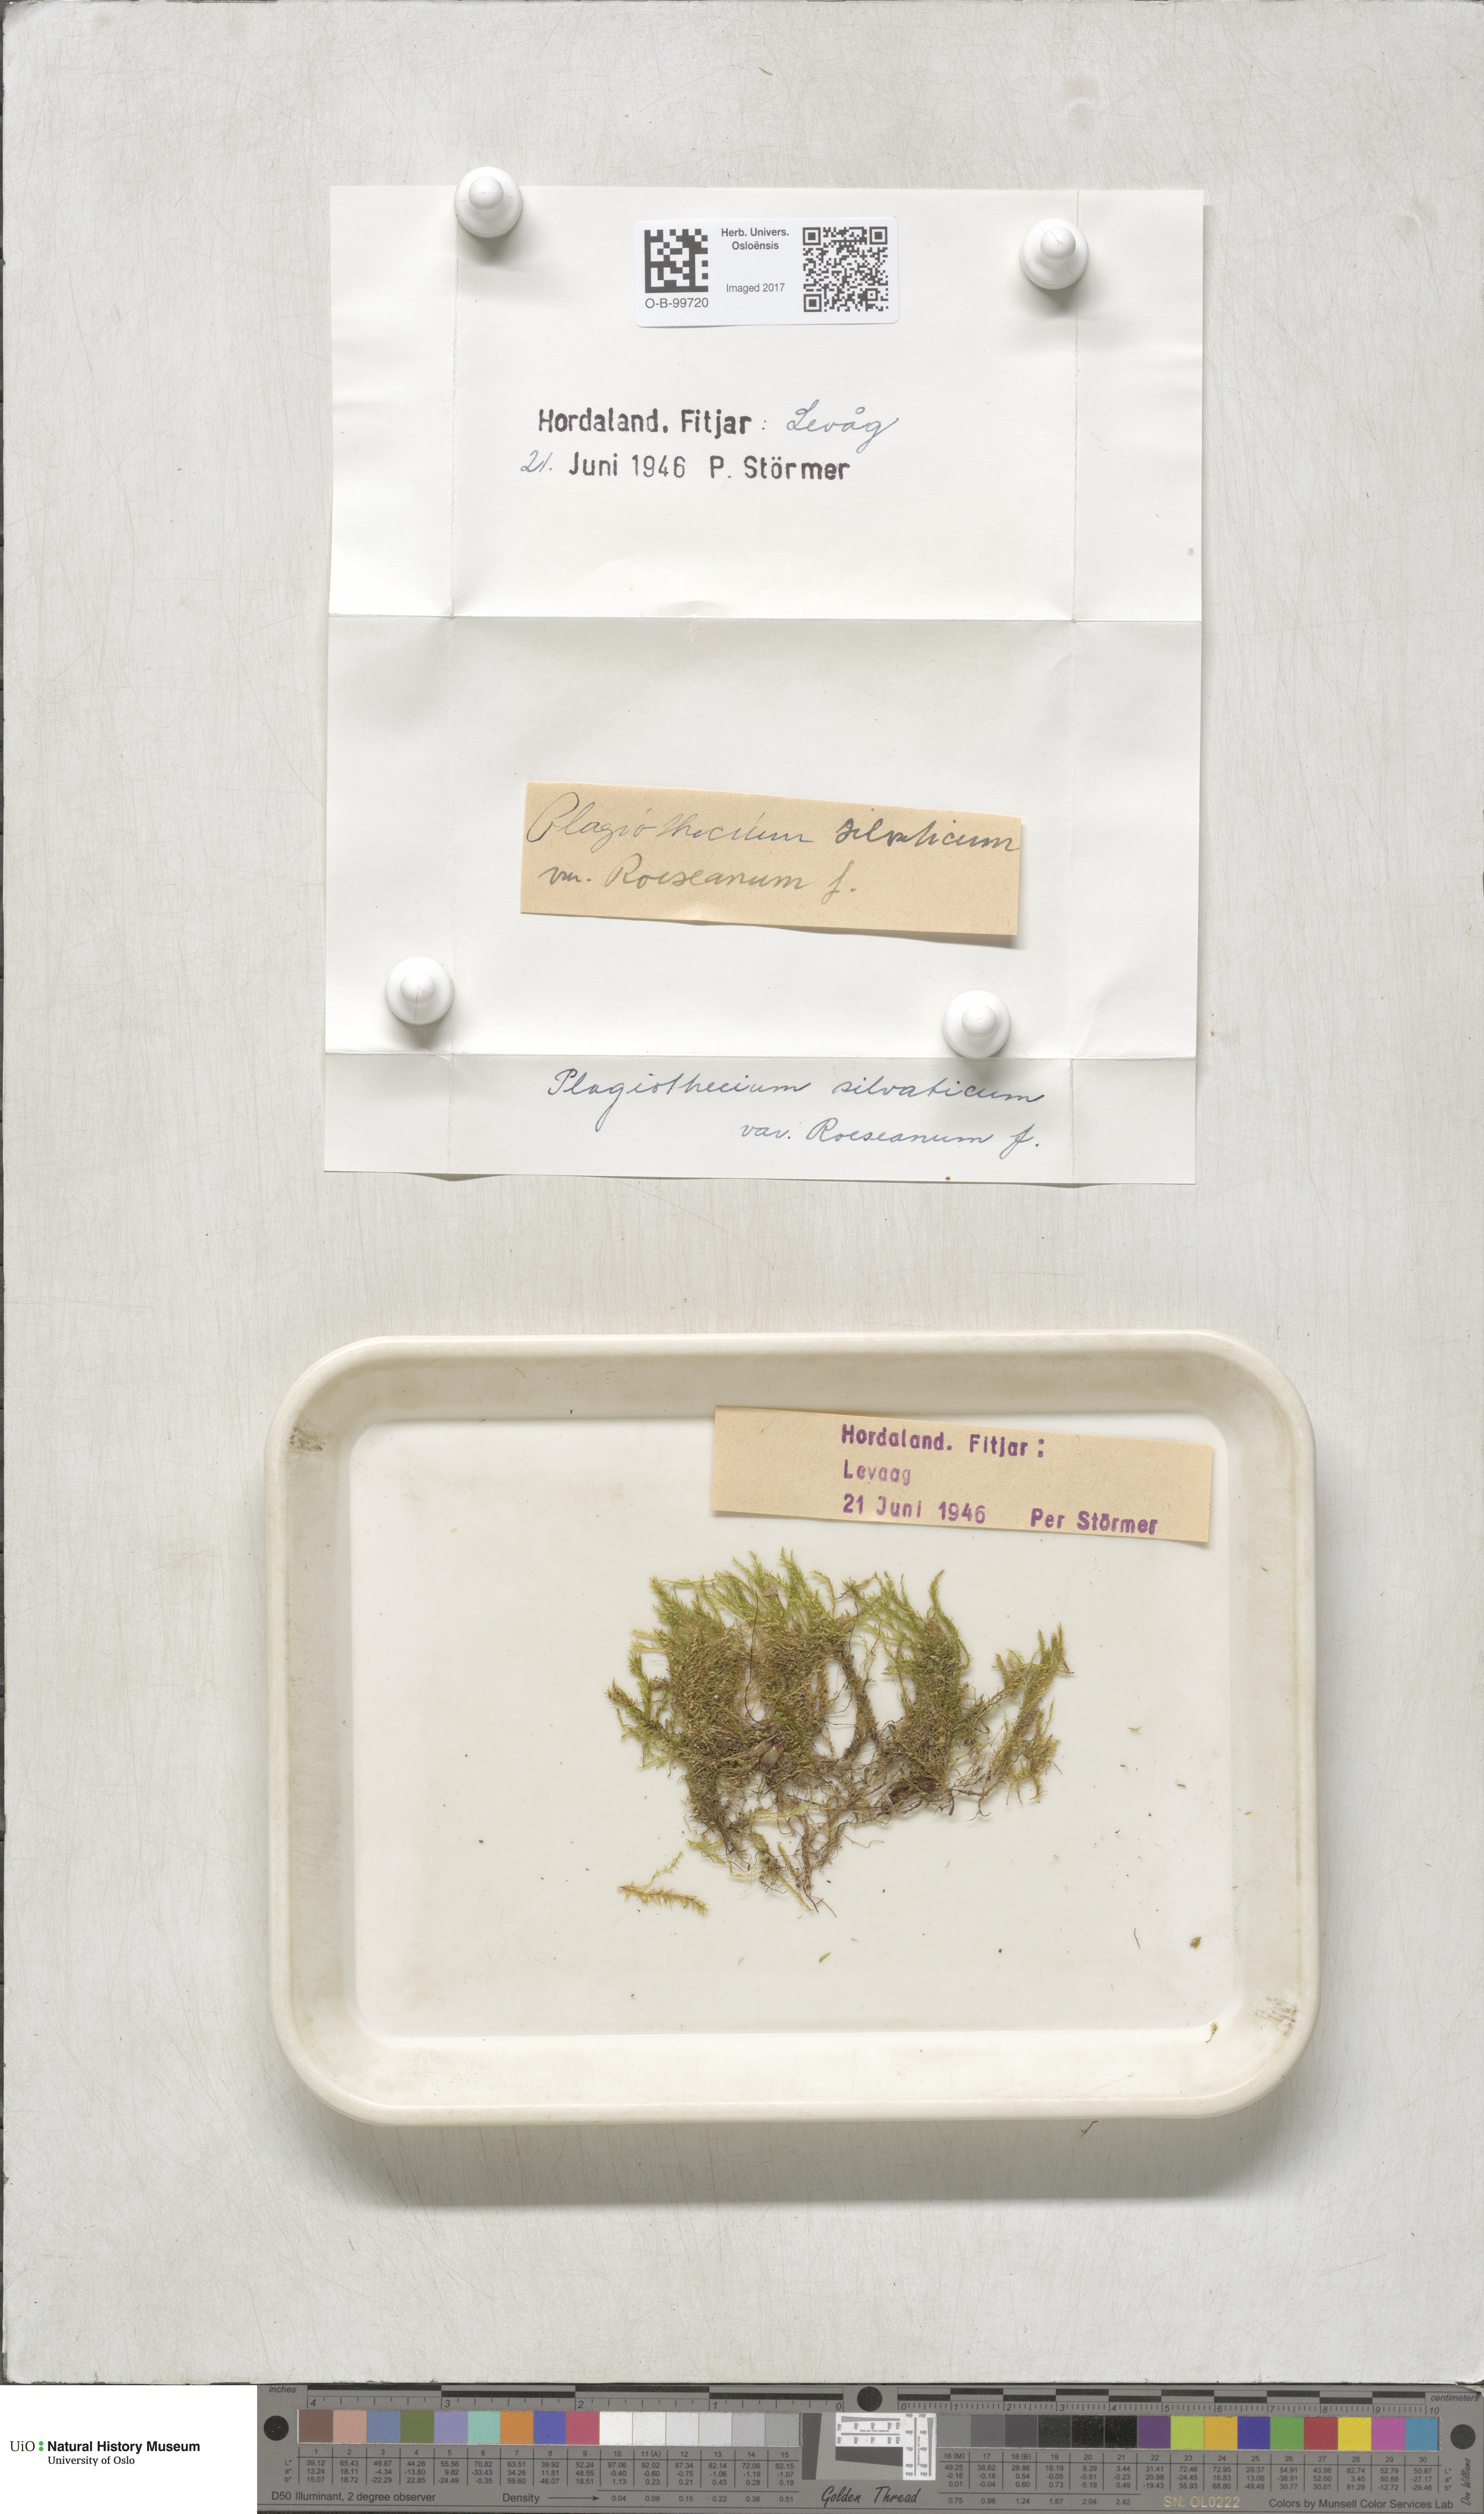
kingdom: Plantae
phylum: Bryophyta
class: Bryopsida
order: Bartramiales
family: Bartramiaceae
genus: Plagiopus
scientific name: Plagiopus oederianus
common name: Oeder's apple moss
